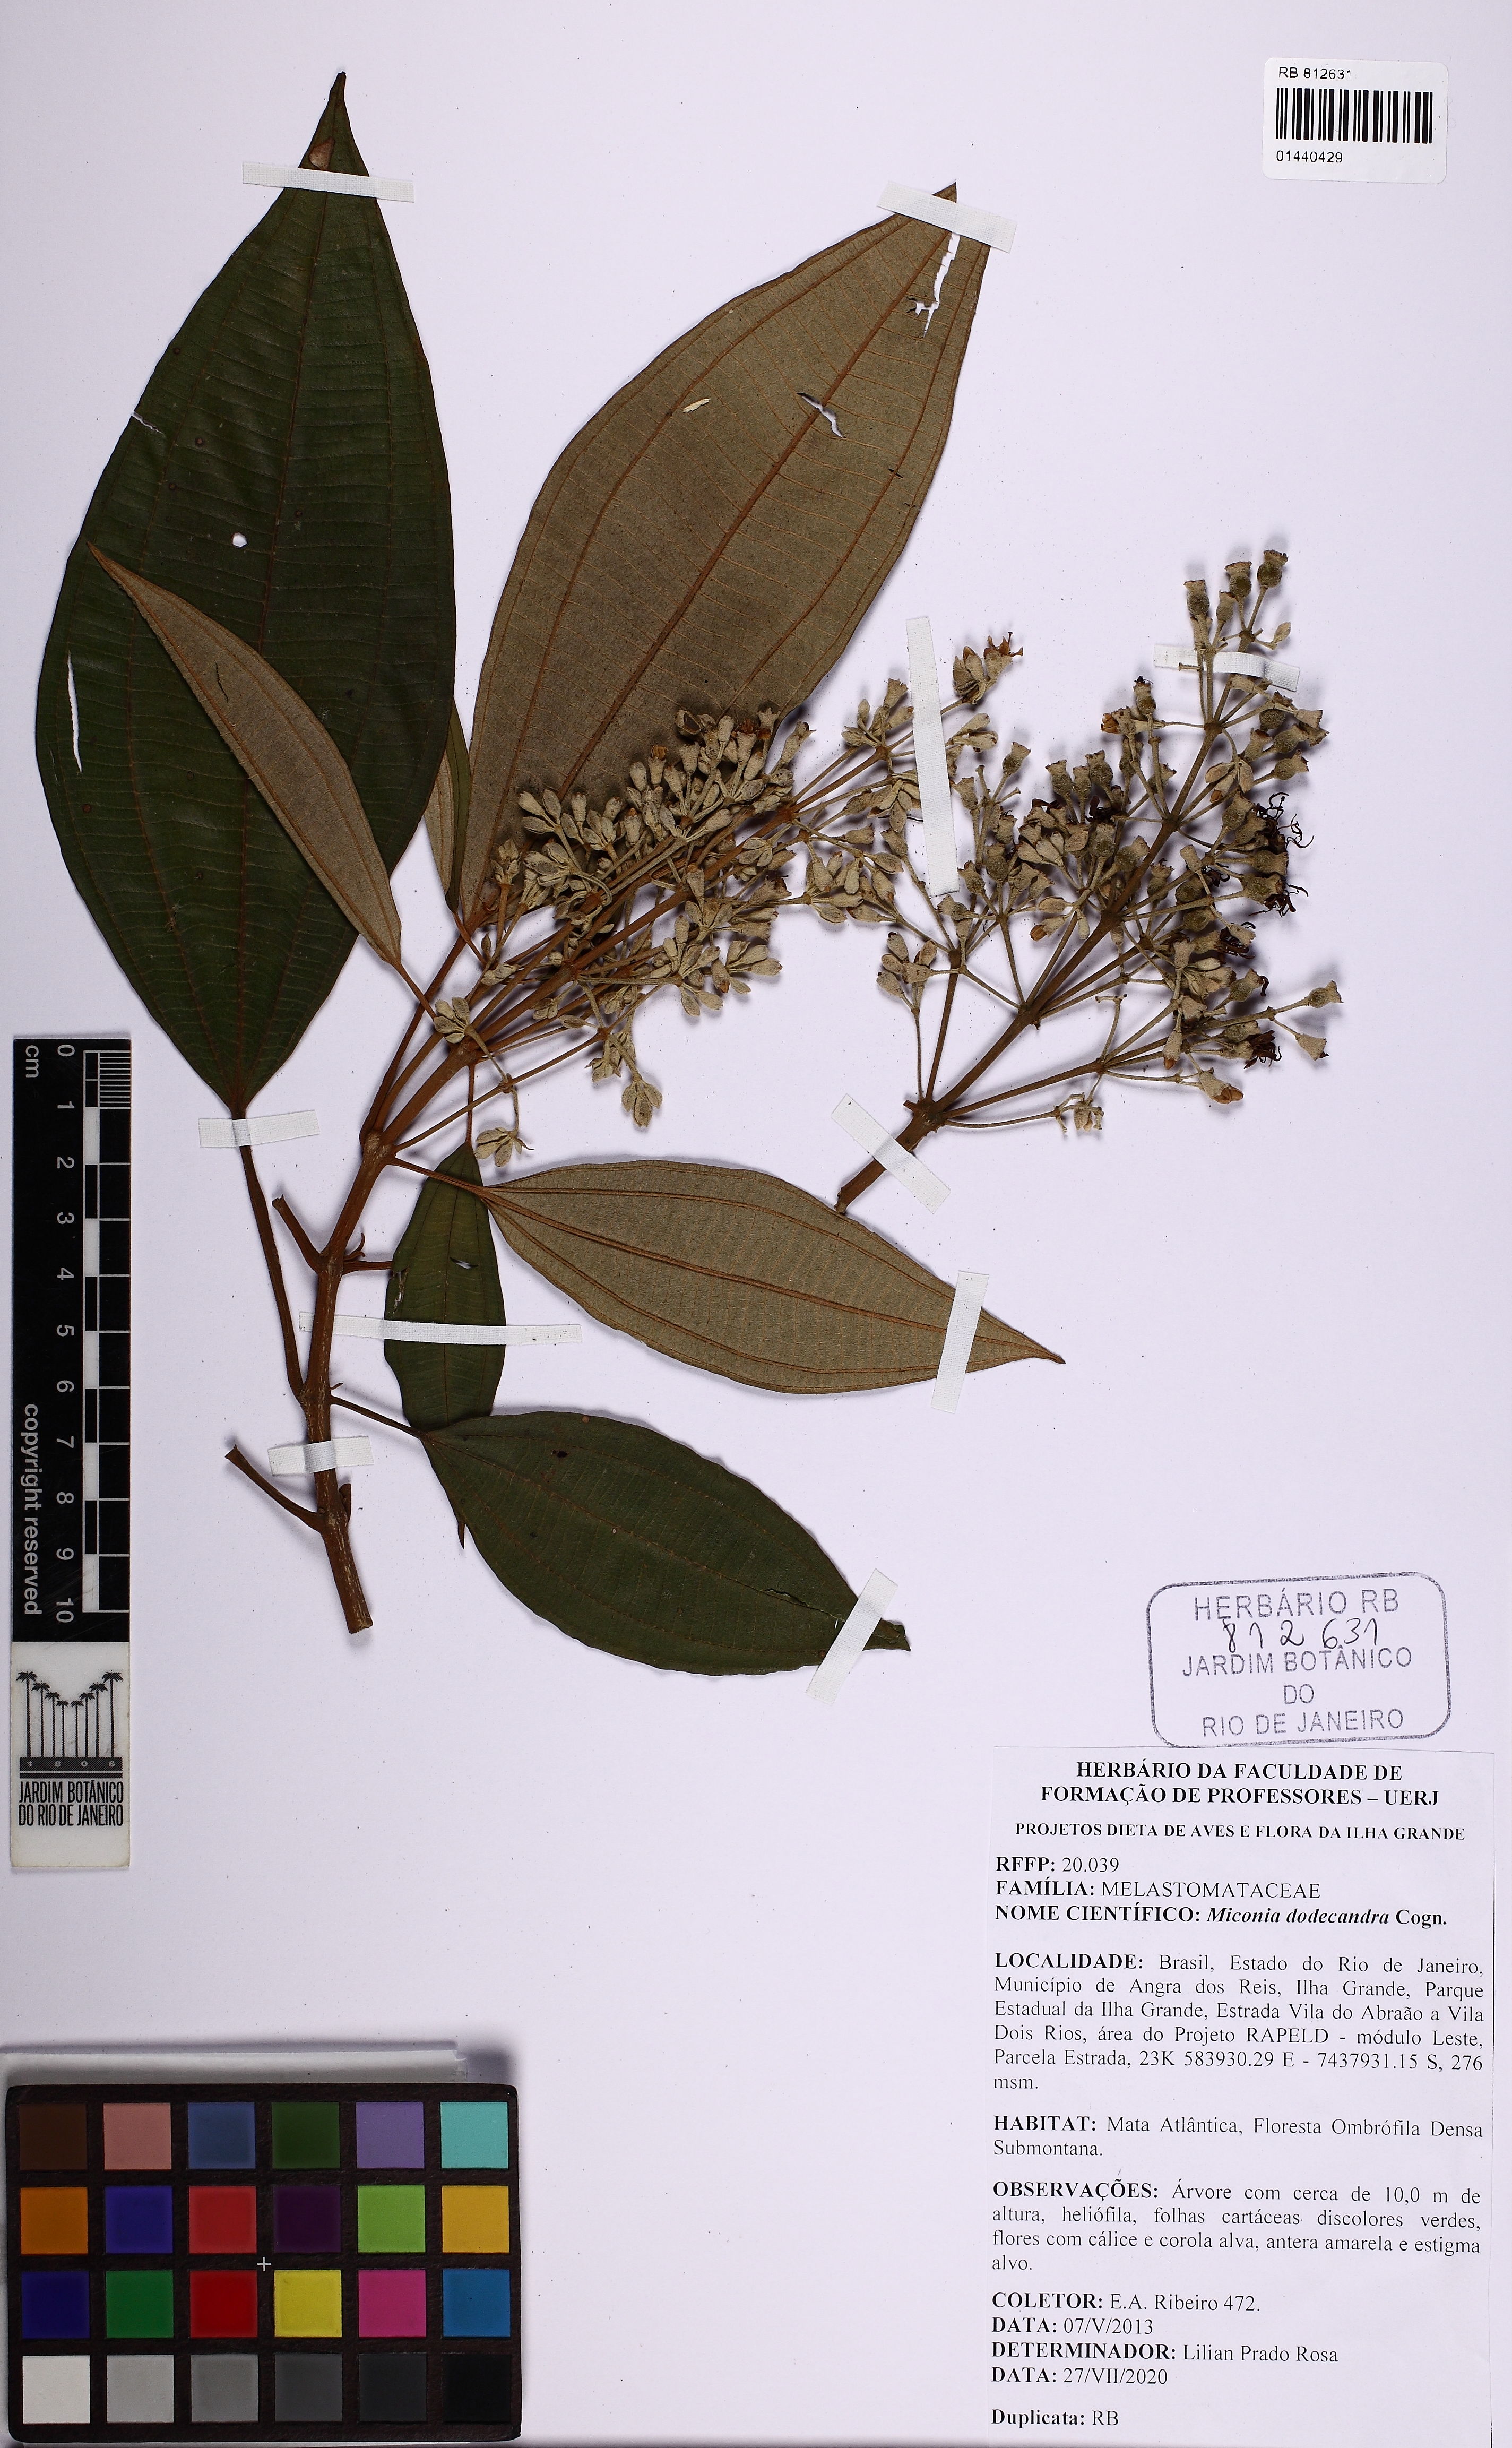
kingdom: Plantae
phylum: Tracheophyta
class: Magnoliopsida
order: Myrtales
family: Melastomataceae
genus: Miconia
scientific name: Miconia dodecandra
